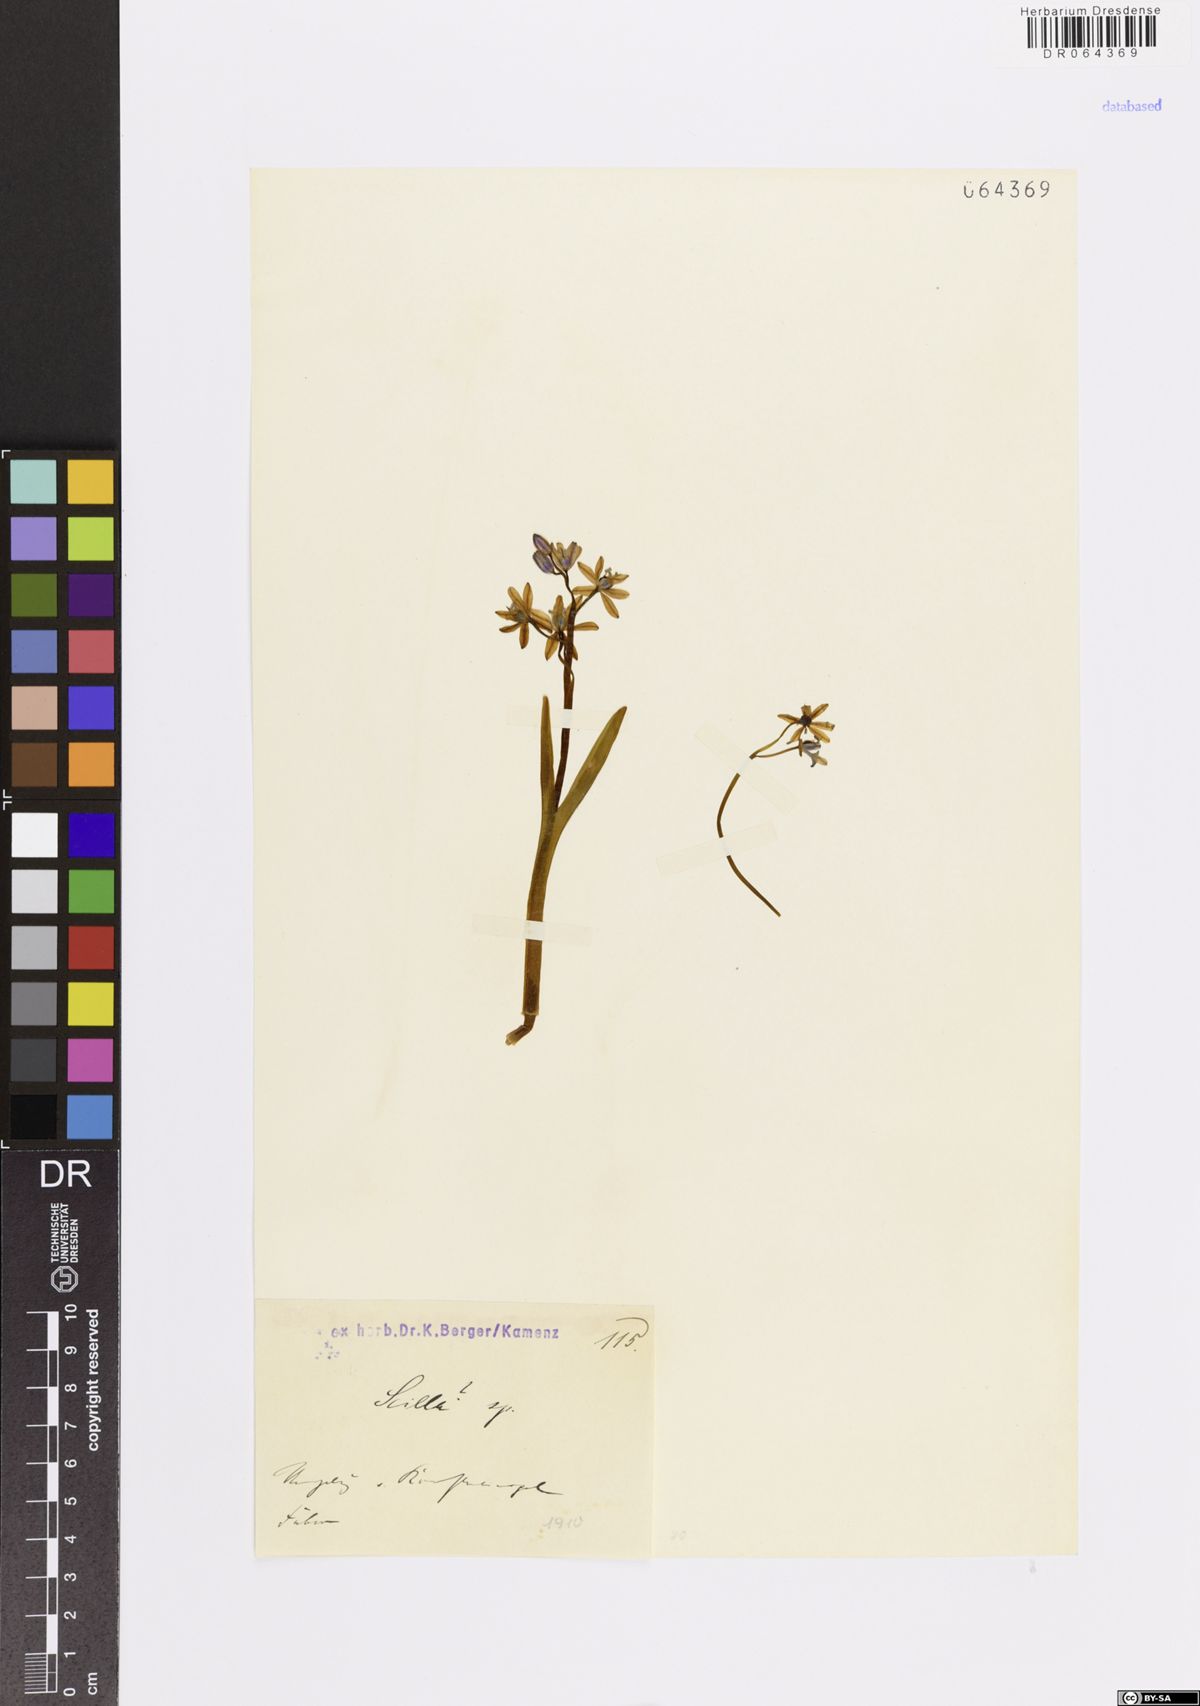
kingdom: Plantae
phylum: Tracheophyta
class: Liliopsida
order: Asparagales
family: Asparagaceae
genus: Scilla
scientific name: Scilla
